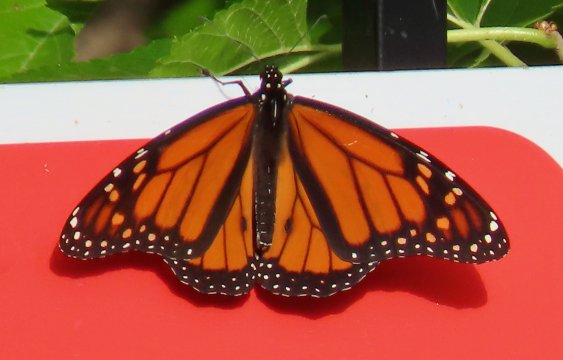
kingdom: Animalia
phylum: Arthropoda
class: Insecta
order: Lepidoptera
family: Nymphalidae
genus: Danaus
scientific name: Danaus plexippus
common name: Monarch
